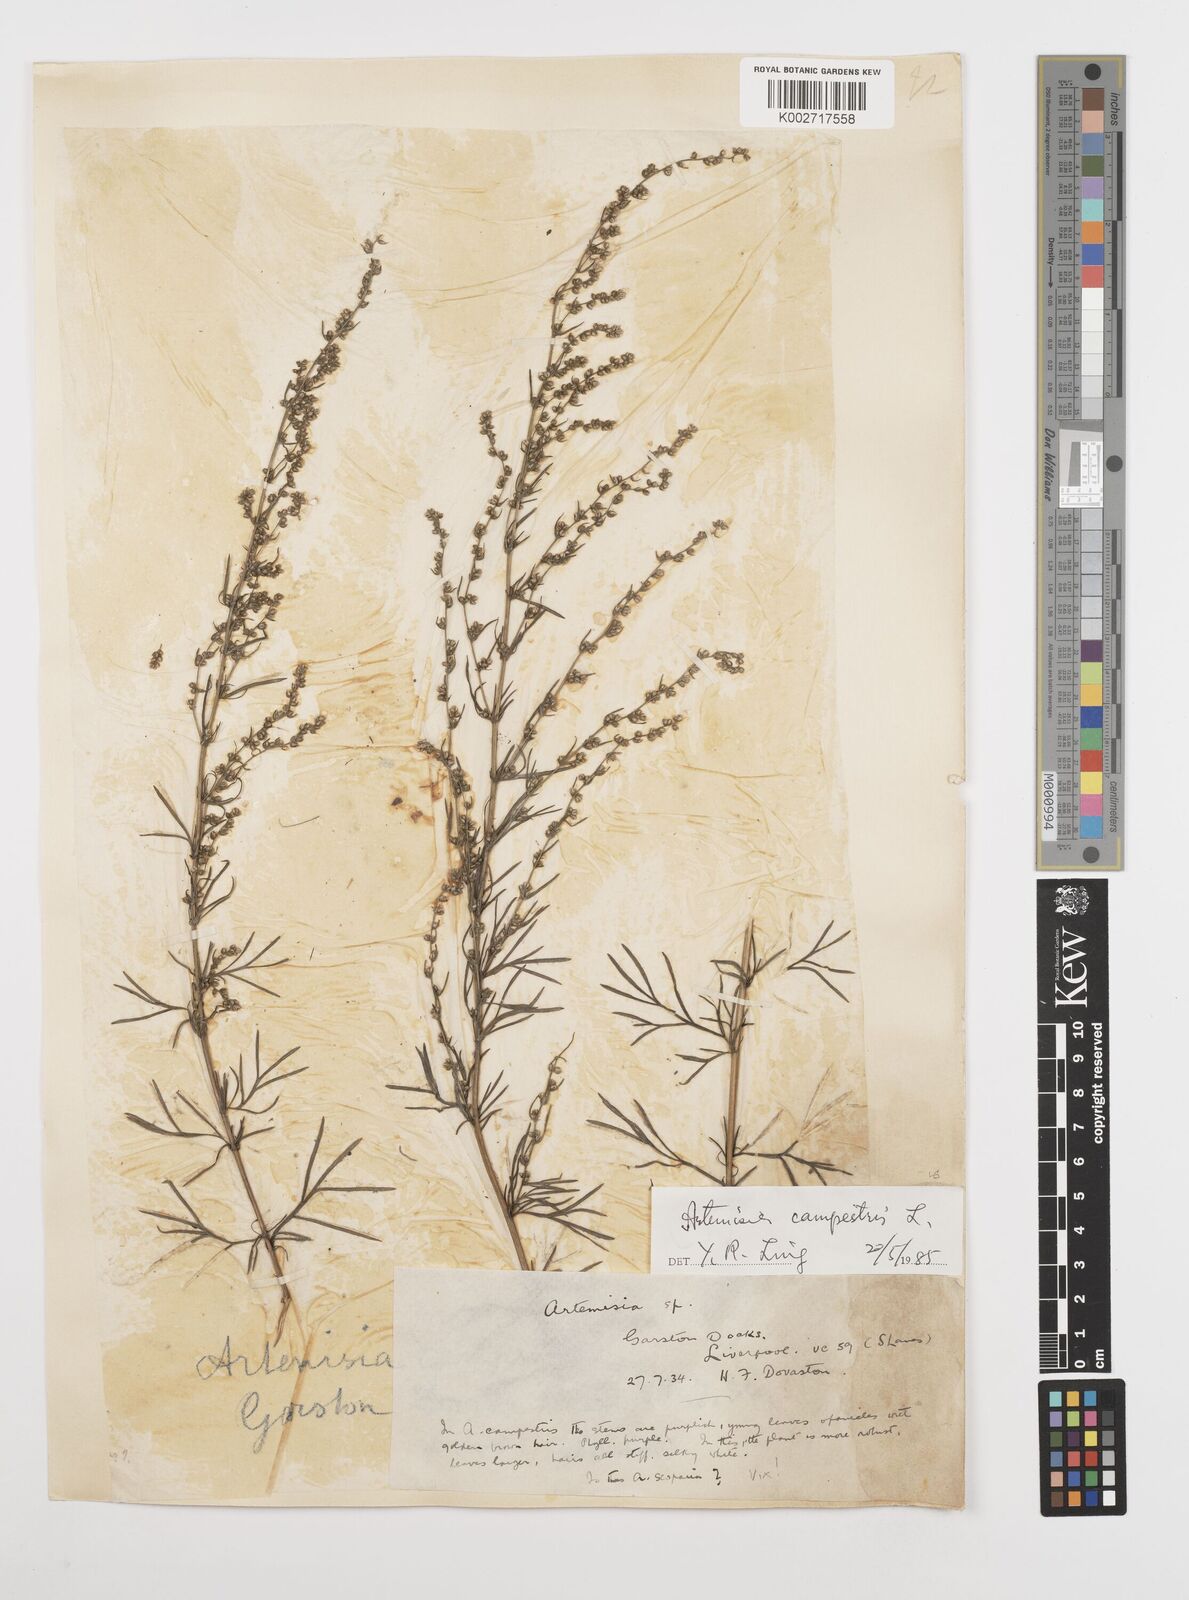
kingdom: Plantae
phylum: Tracheophyta
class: Magnoliopsida
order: Asterales
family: Asteraceae
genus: Artemisia
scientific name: Artemisia campestris
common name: Field wormwood
